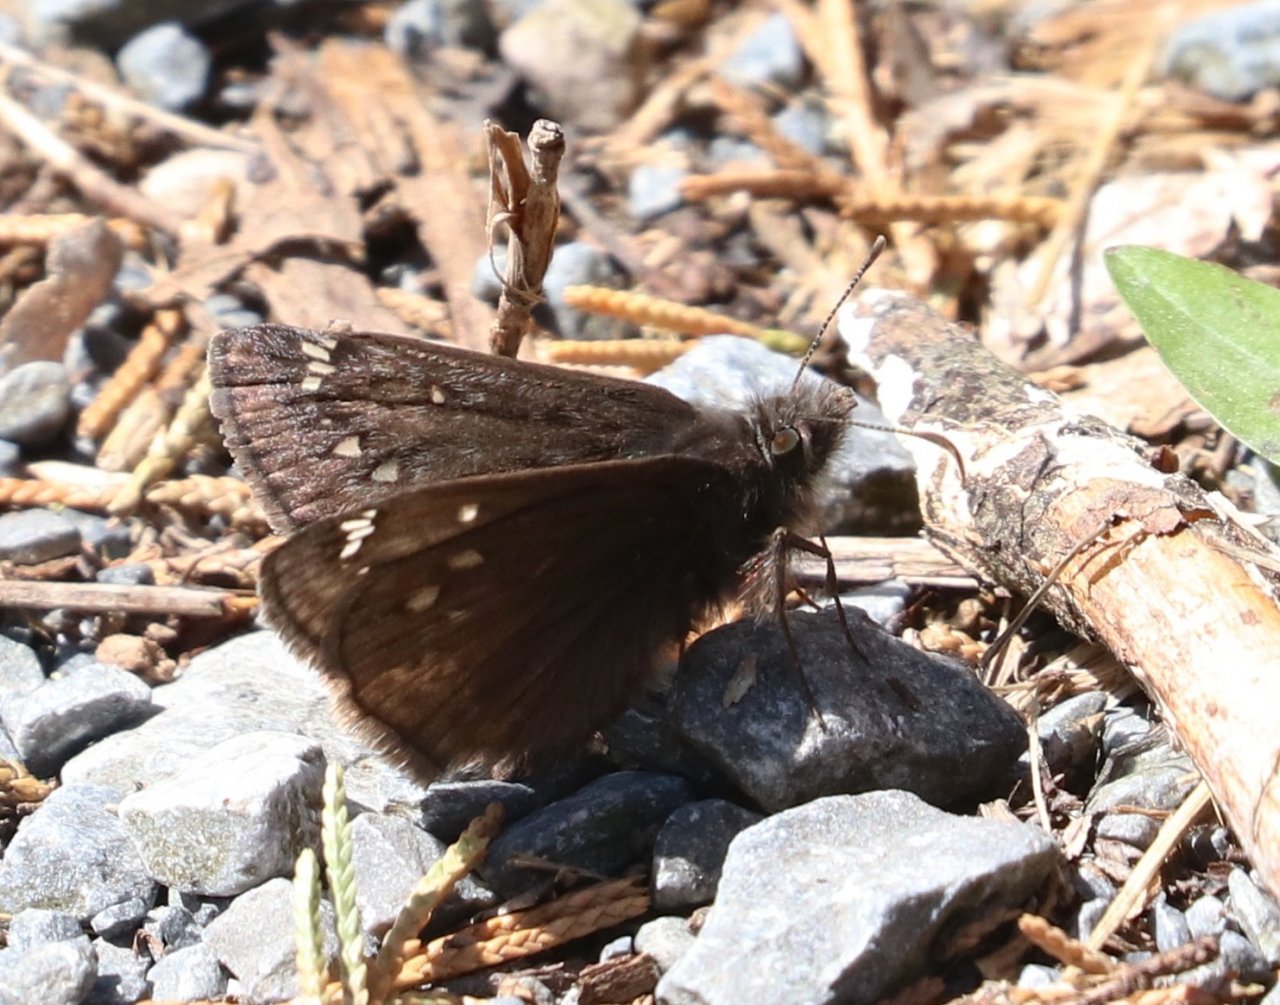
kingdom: Animalia
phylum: Arthropoda
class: Insecta
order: Lepidoptera
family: Hesperiidae
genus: Gesta
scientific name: Gesta
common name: Juvenal's Duskywing
